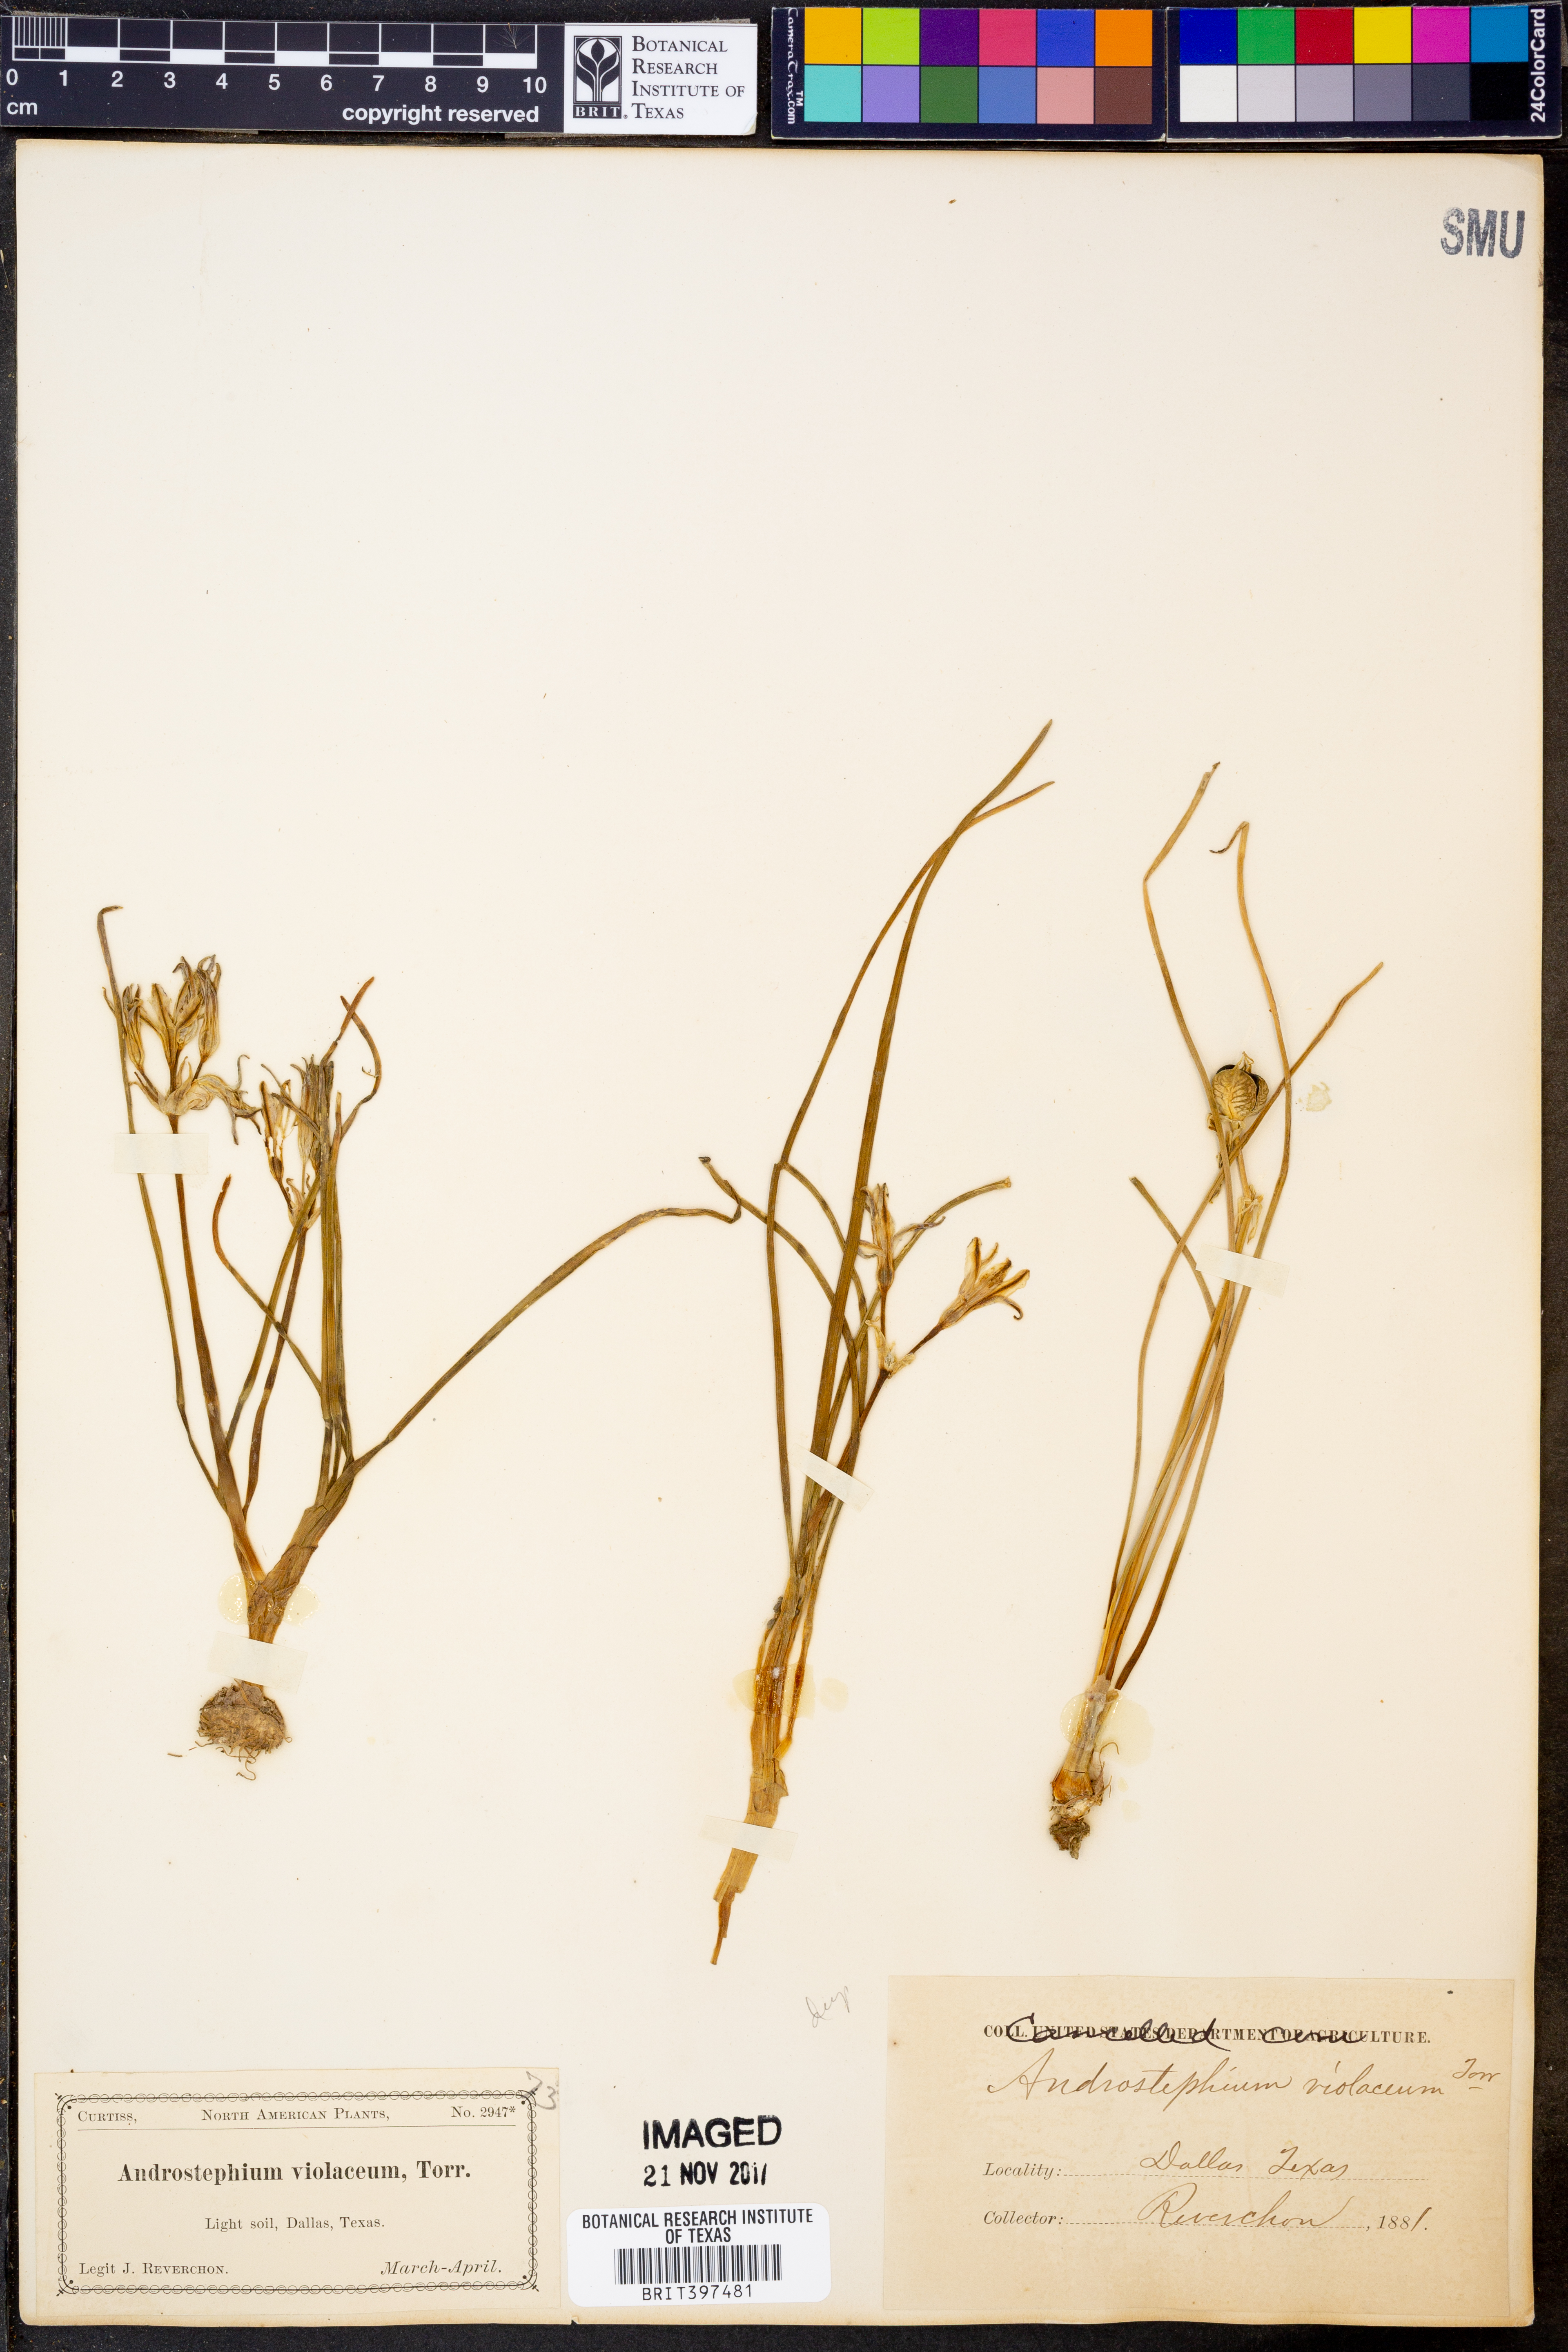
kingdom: Plantae
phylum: Tracheophyta
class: Liliopsida
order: Asparagales
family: Asparagaceae
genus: Androstephium
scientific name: Androstephium coeruleum
